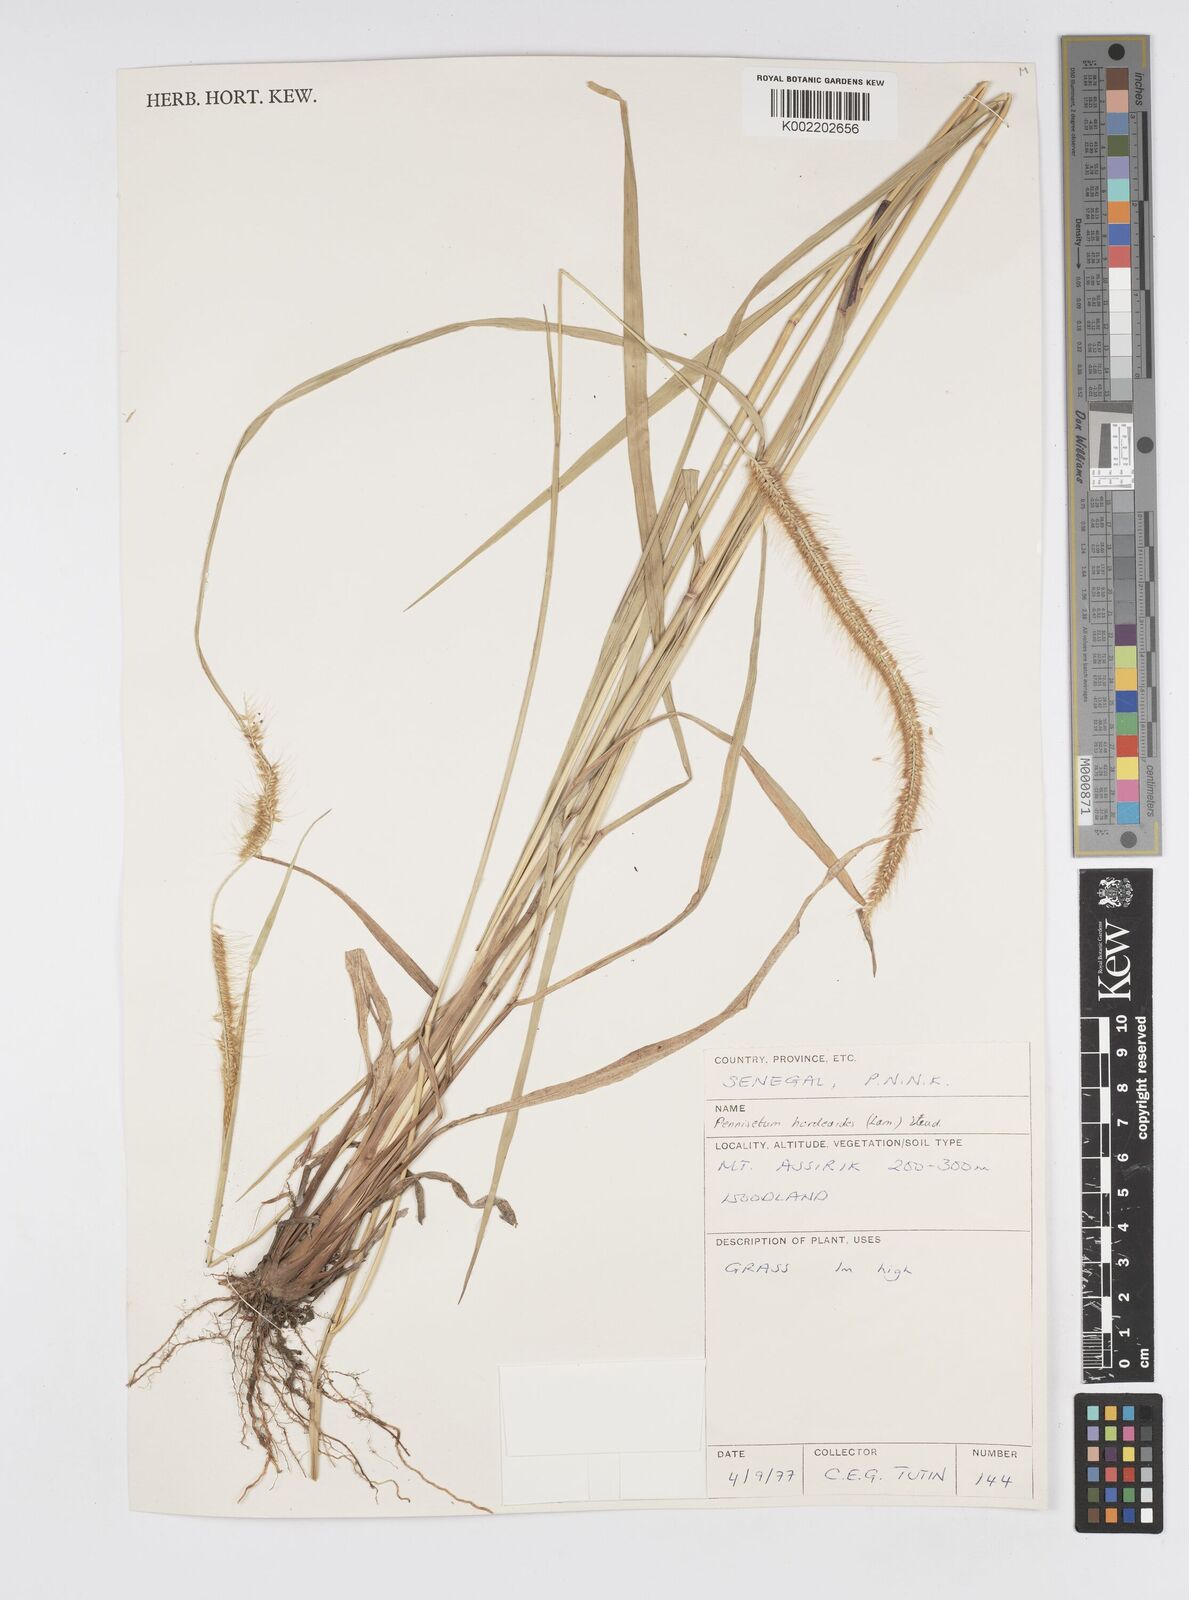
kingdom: Plantae
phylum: Tracheophyta
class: Liliopsida
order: Poales
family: Poaceae
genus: Cenchrus
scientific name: Cenchrus hordeoides
